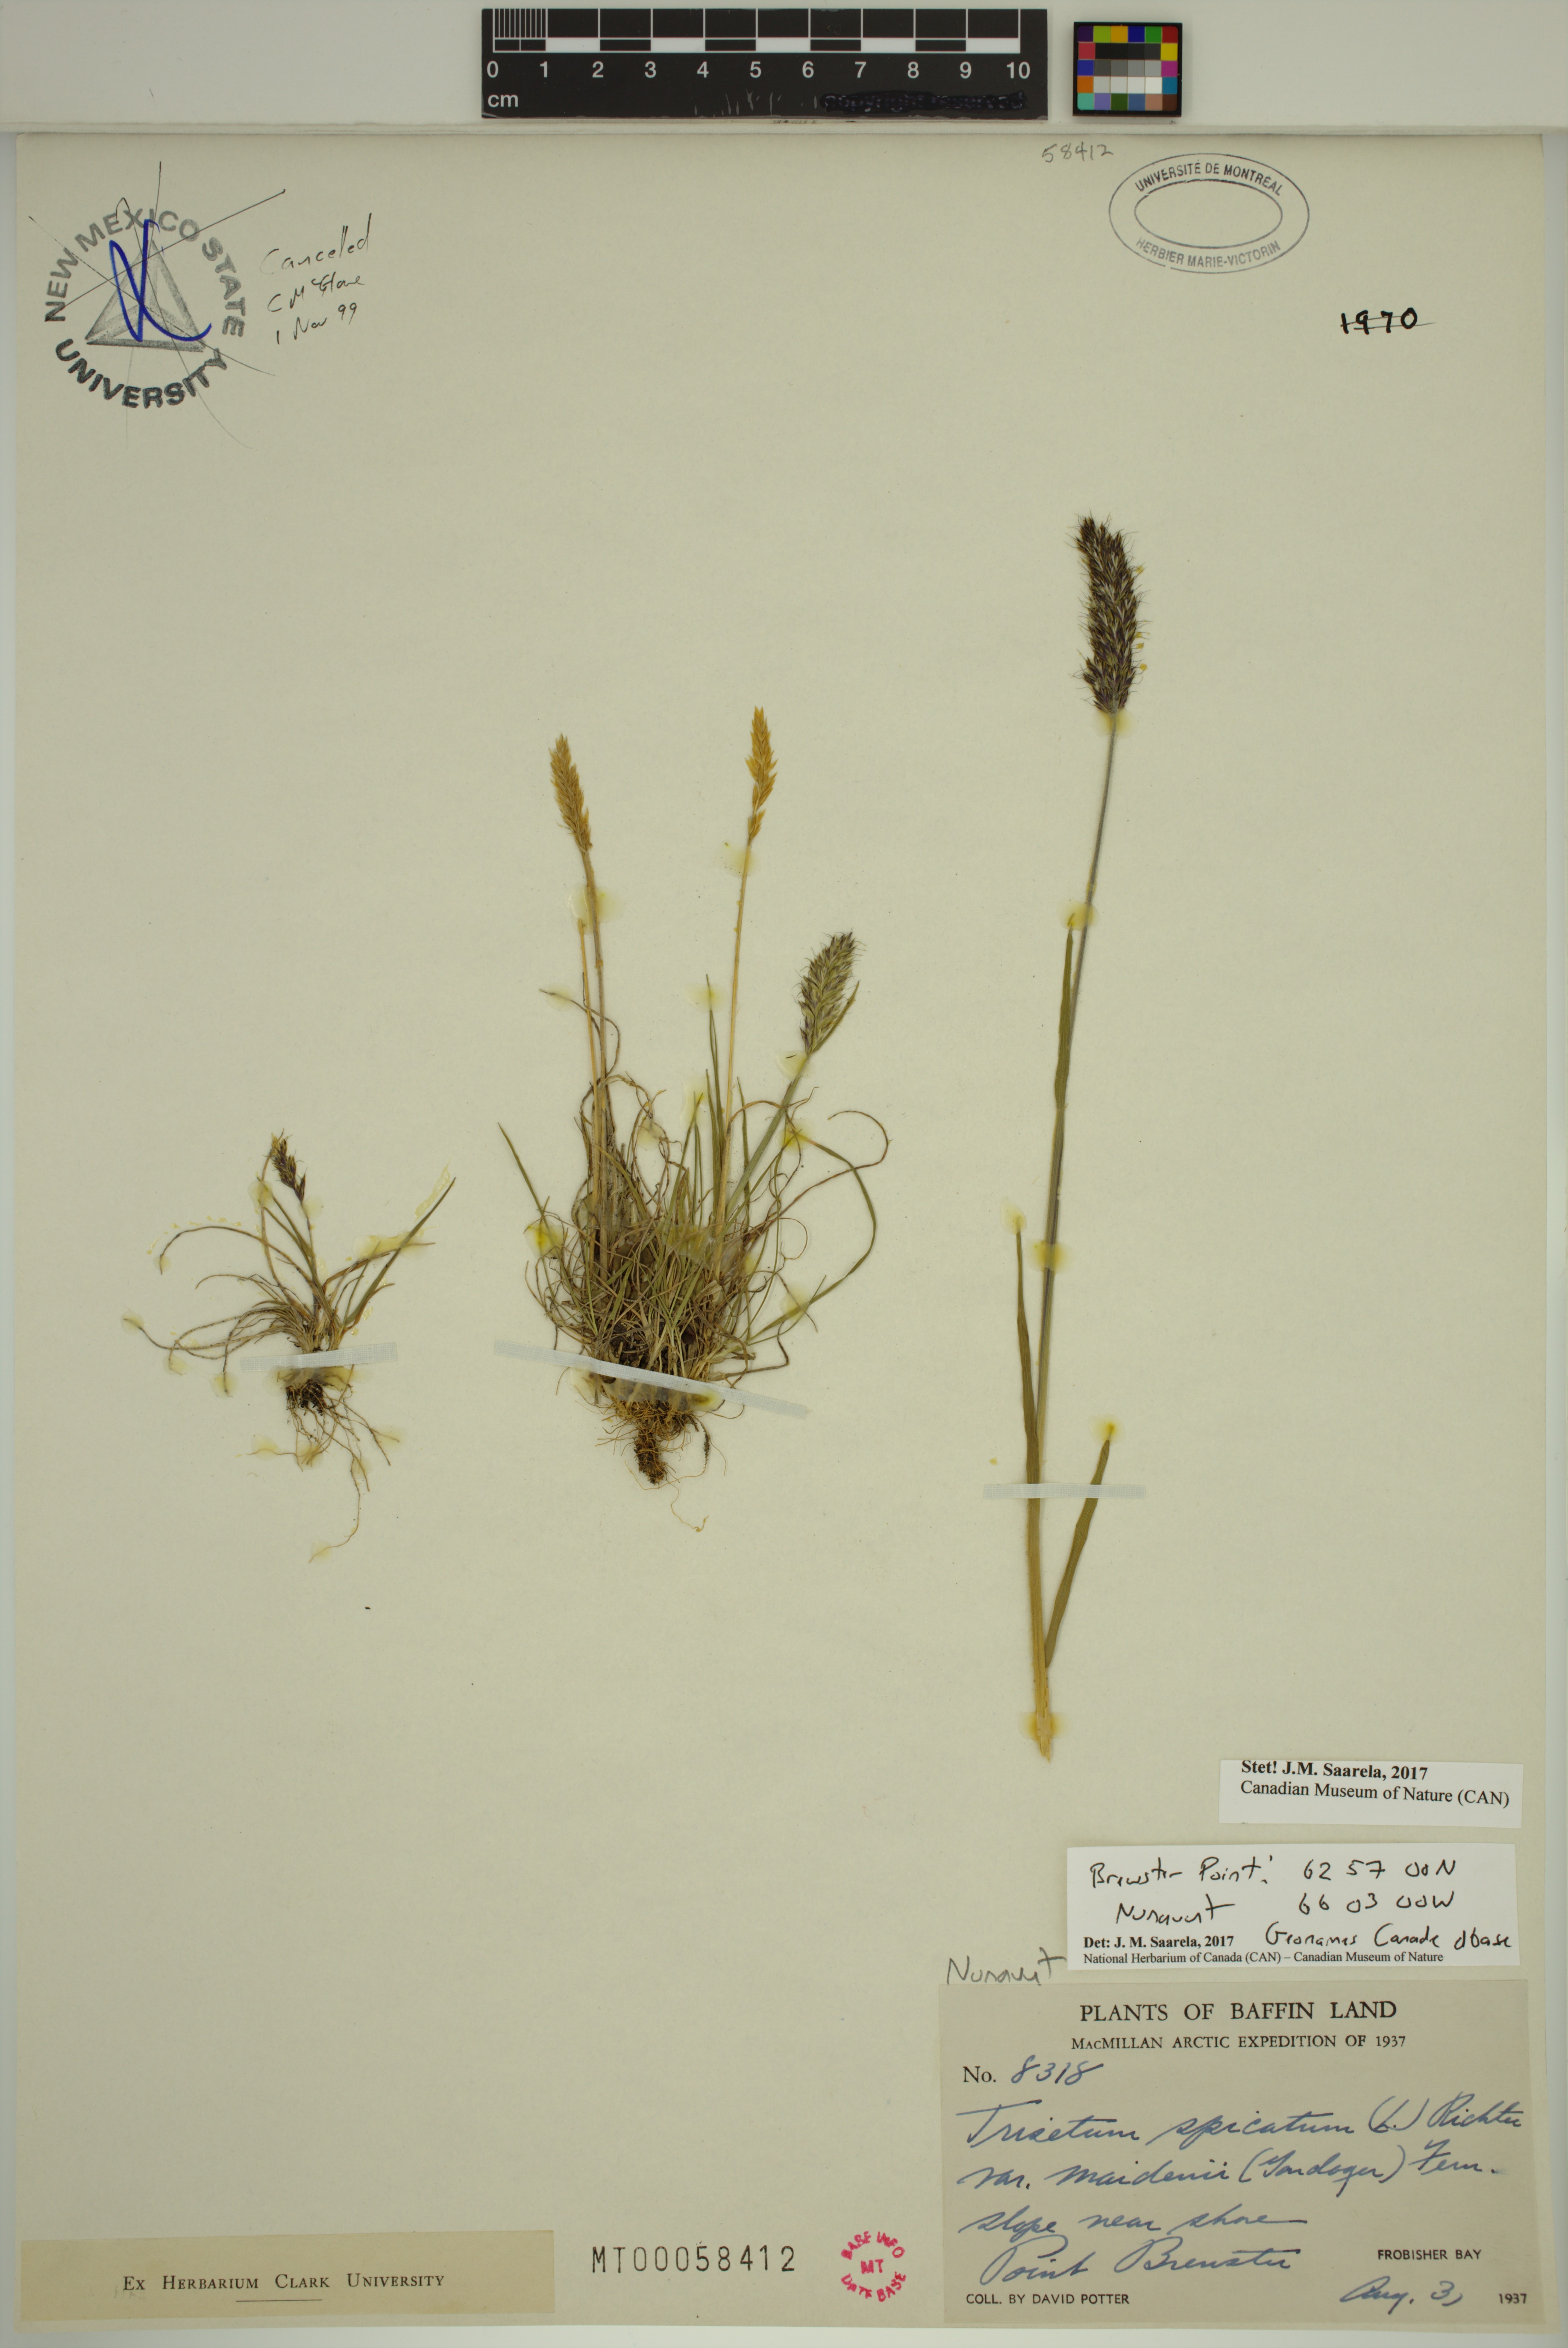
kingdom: Plantae
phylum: Tracheophyta
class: Liliopsida
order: Poales
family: Poaceae
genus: Koeleria
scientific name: Koeleria spicata
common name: Mountain trisetum
